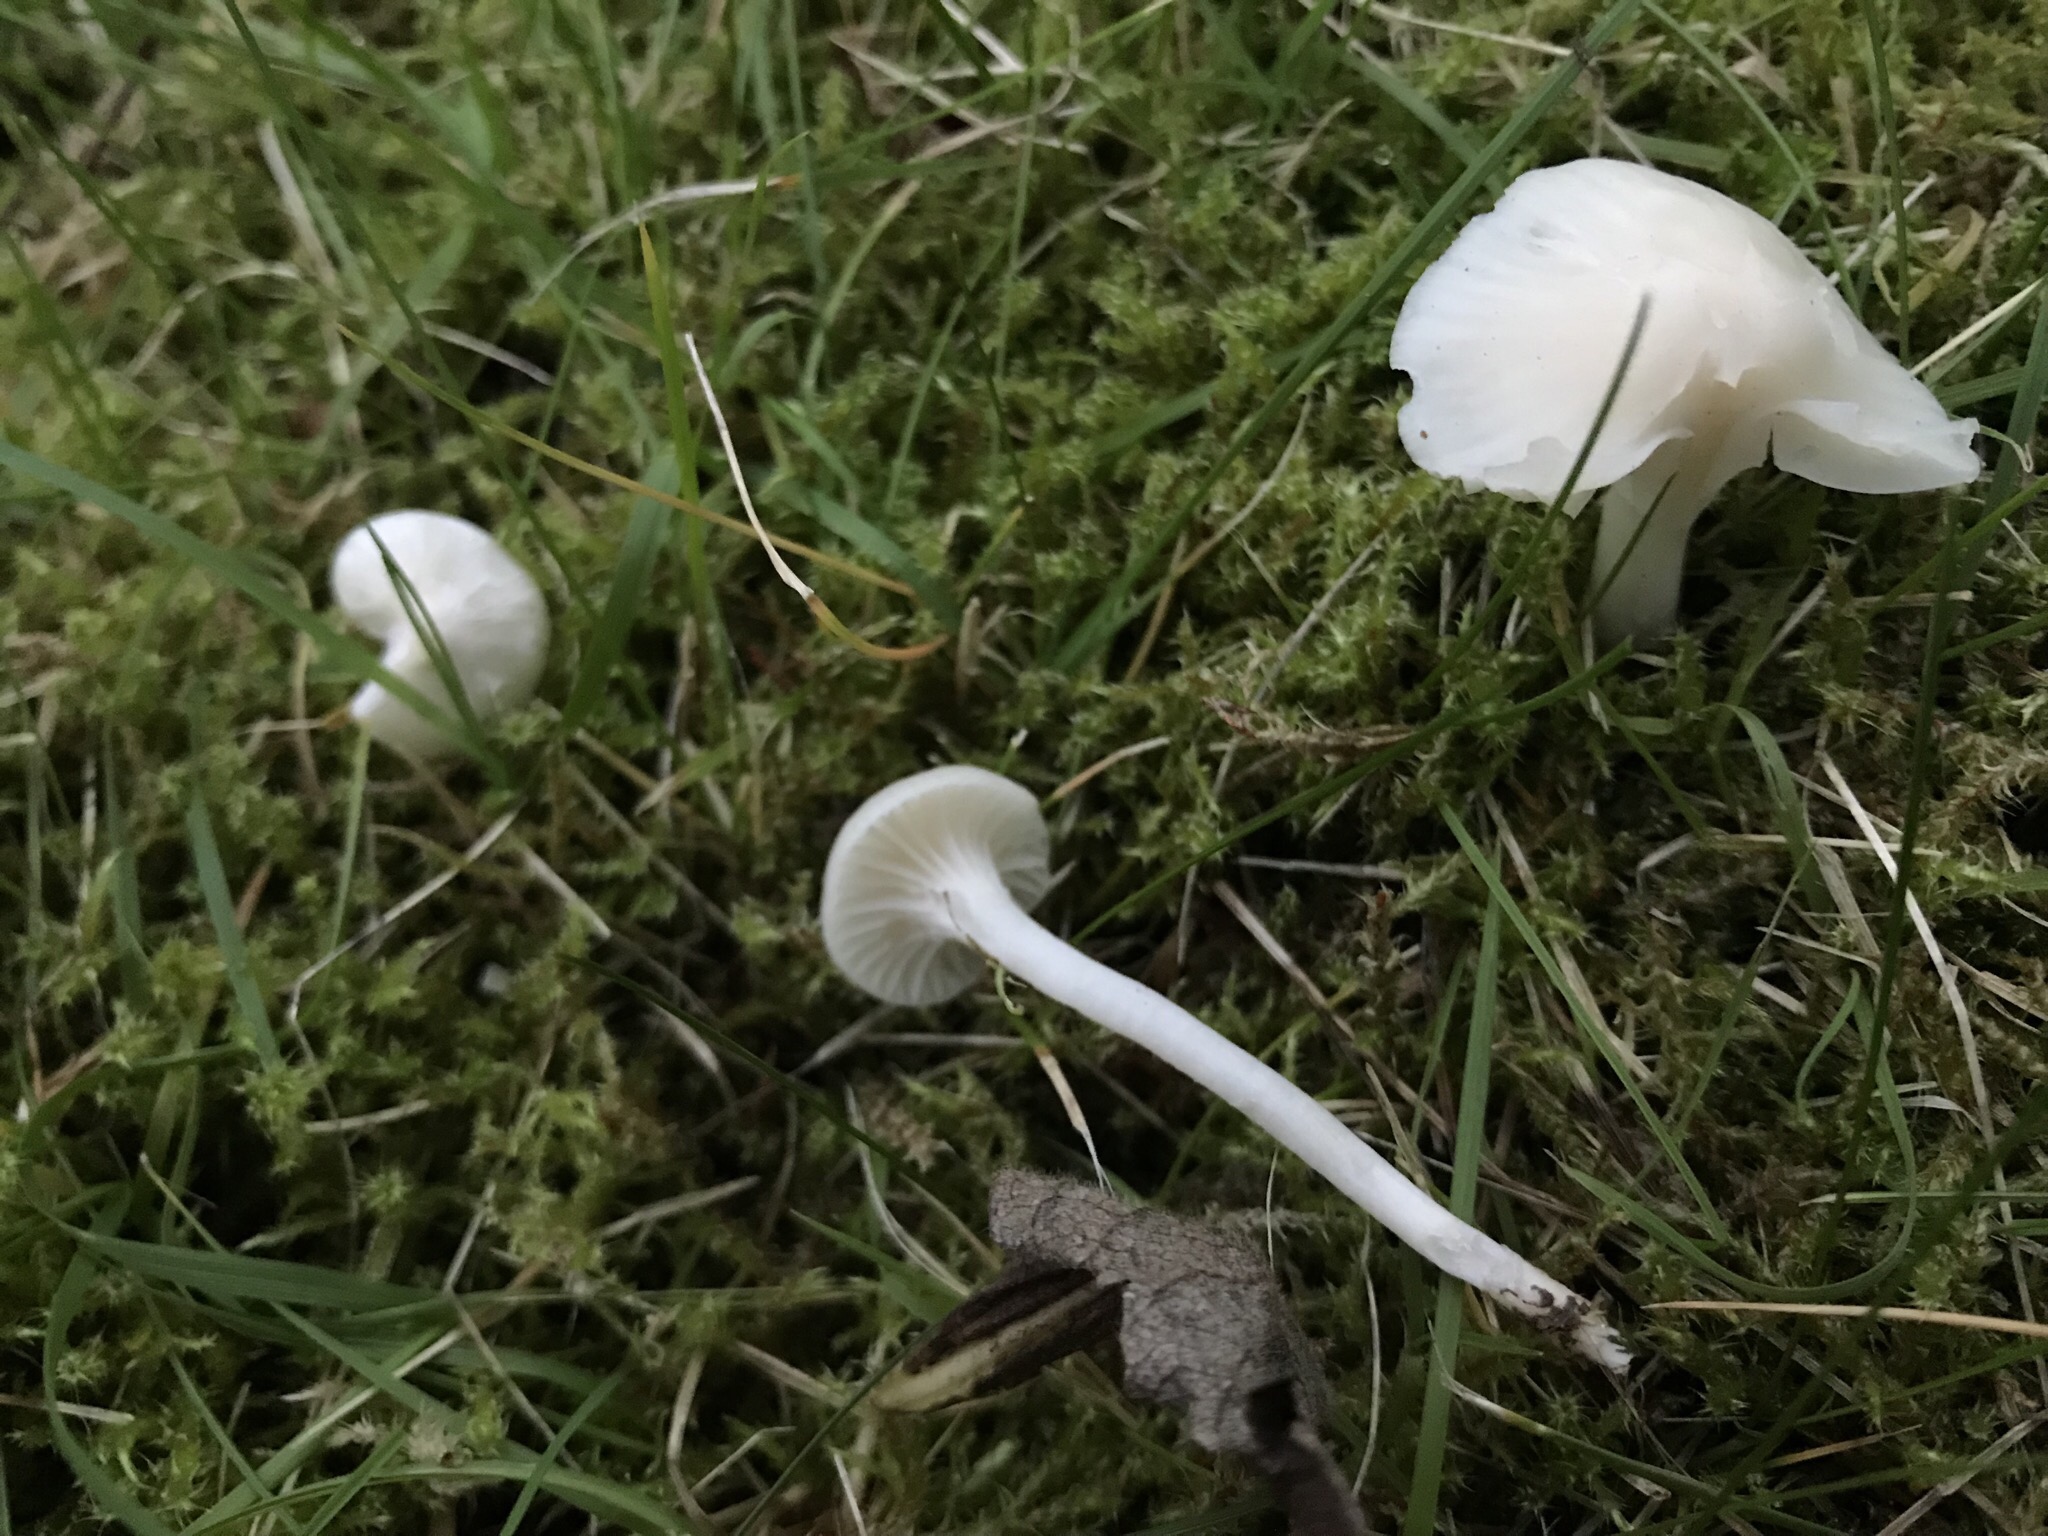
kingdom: Fungi
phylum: Basidiomycota
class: Agaricomycetes
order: Agaricales
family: Hygrophoraceae
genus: Cuphophyllus
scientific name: Cuphophyllus virgineus
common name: snehvid vokshat
